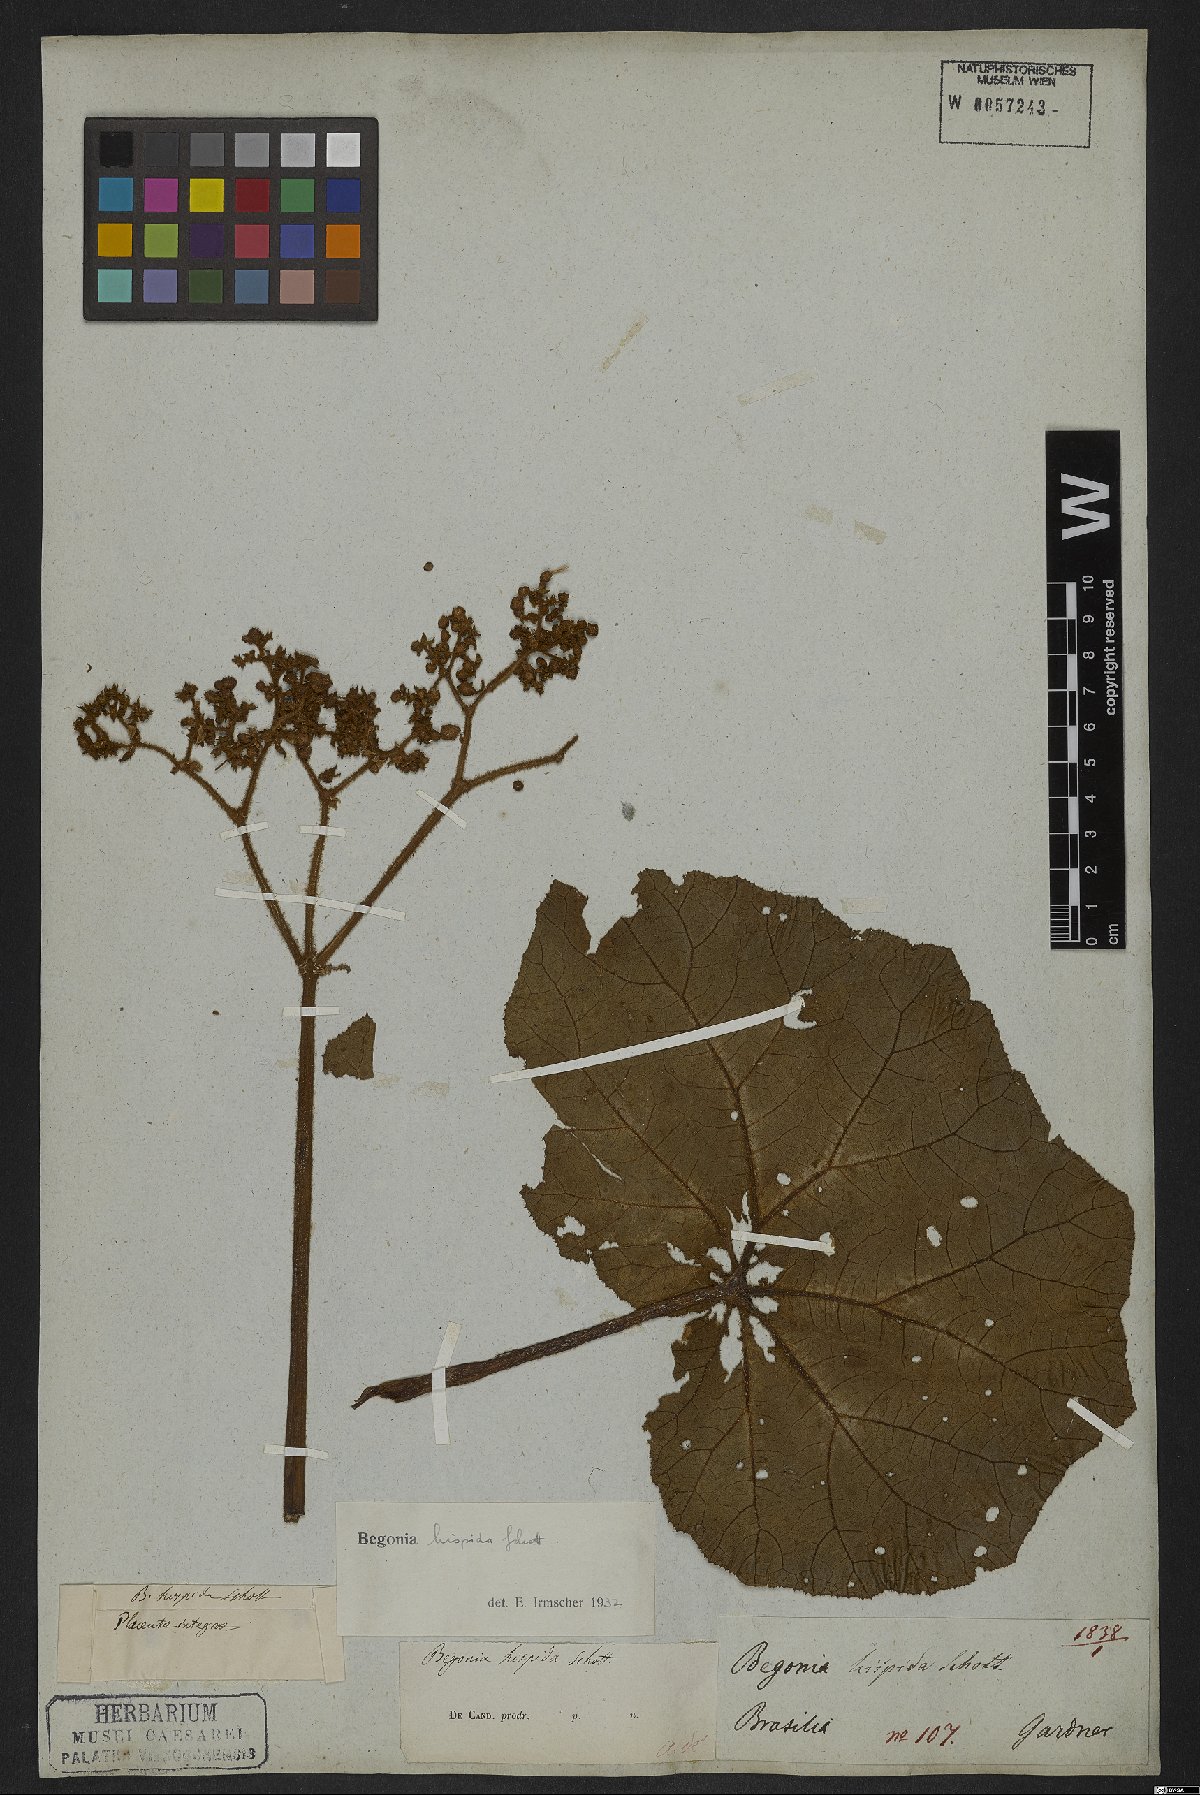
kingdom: Plantae
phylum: Tracheophyta
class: Magnoliopsida
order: Cucurbitales
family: Begoniaceae
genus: Begonia
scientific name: Begonia hispida
